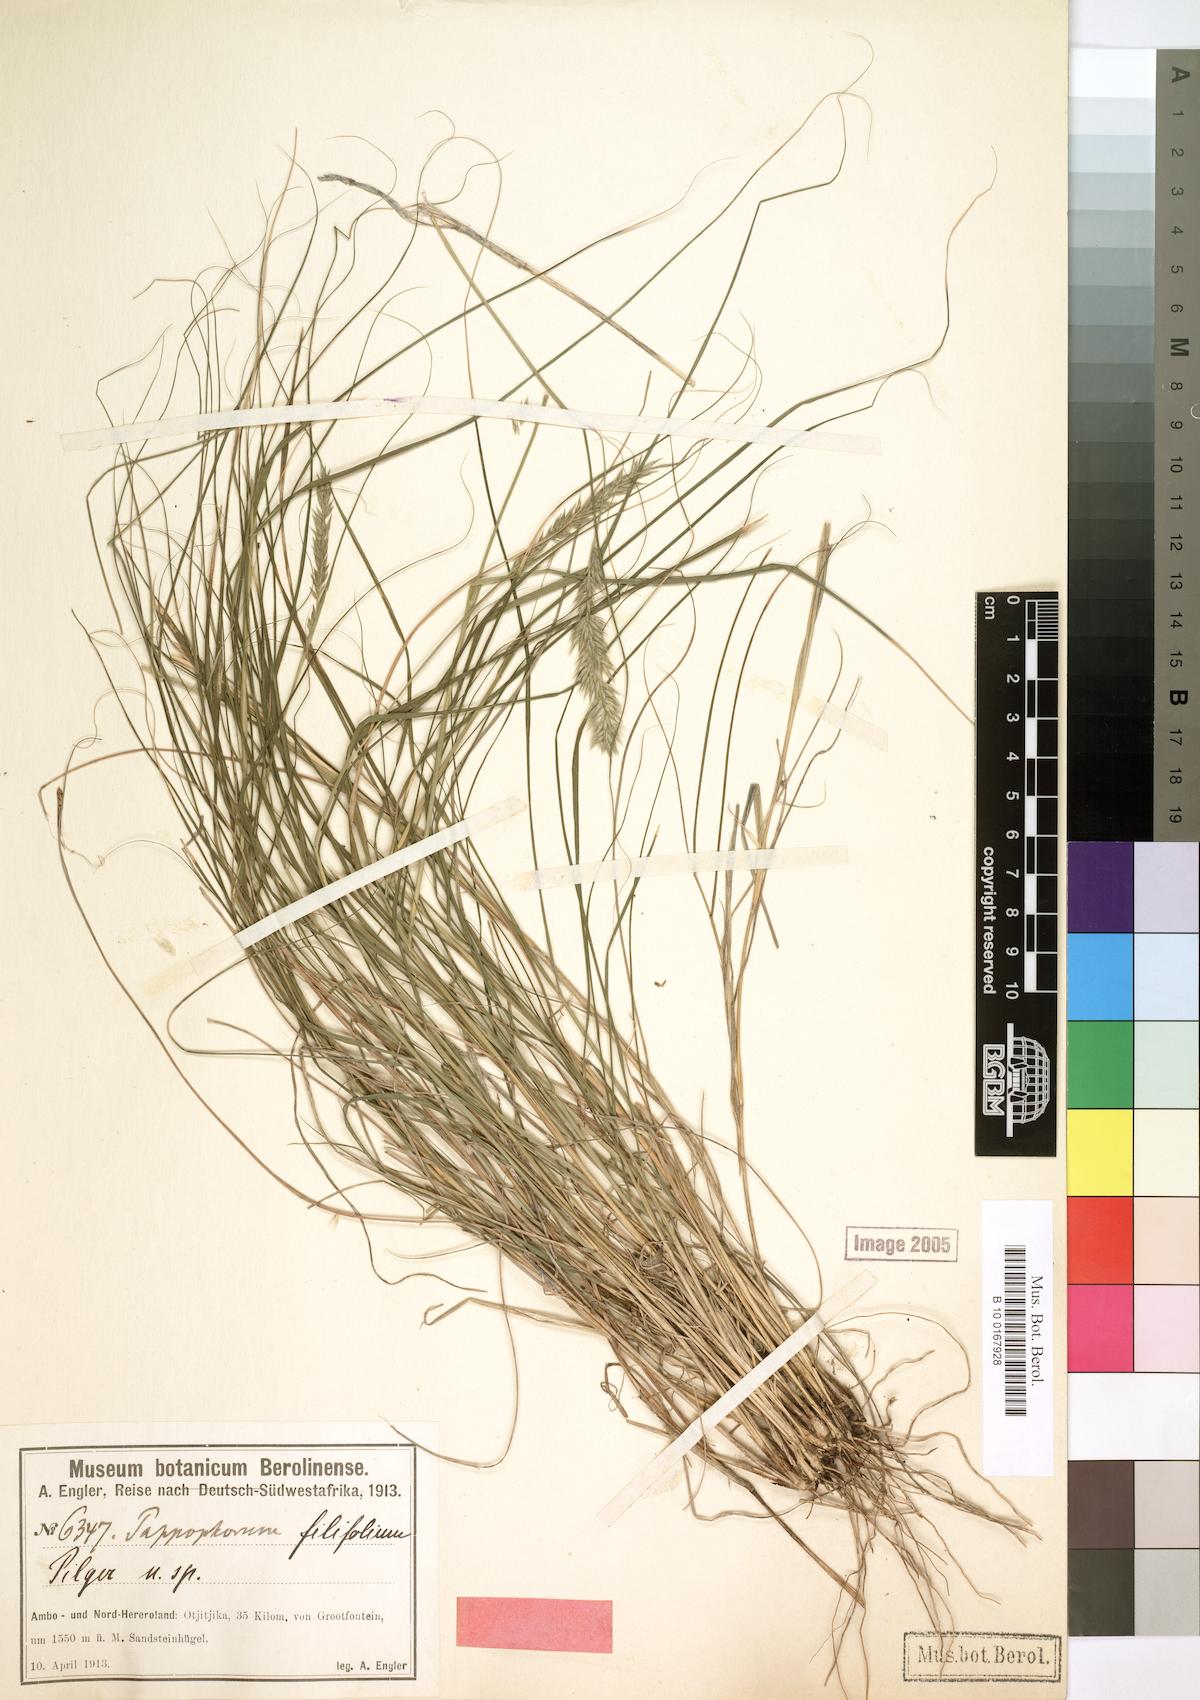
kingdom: Plantae
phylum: Tracheophyta
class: Liliopsida
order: Poales
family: Poaceae
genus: Enneapogon
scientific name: Enneapogon scoparius
